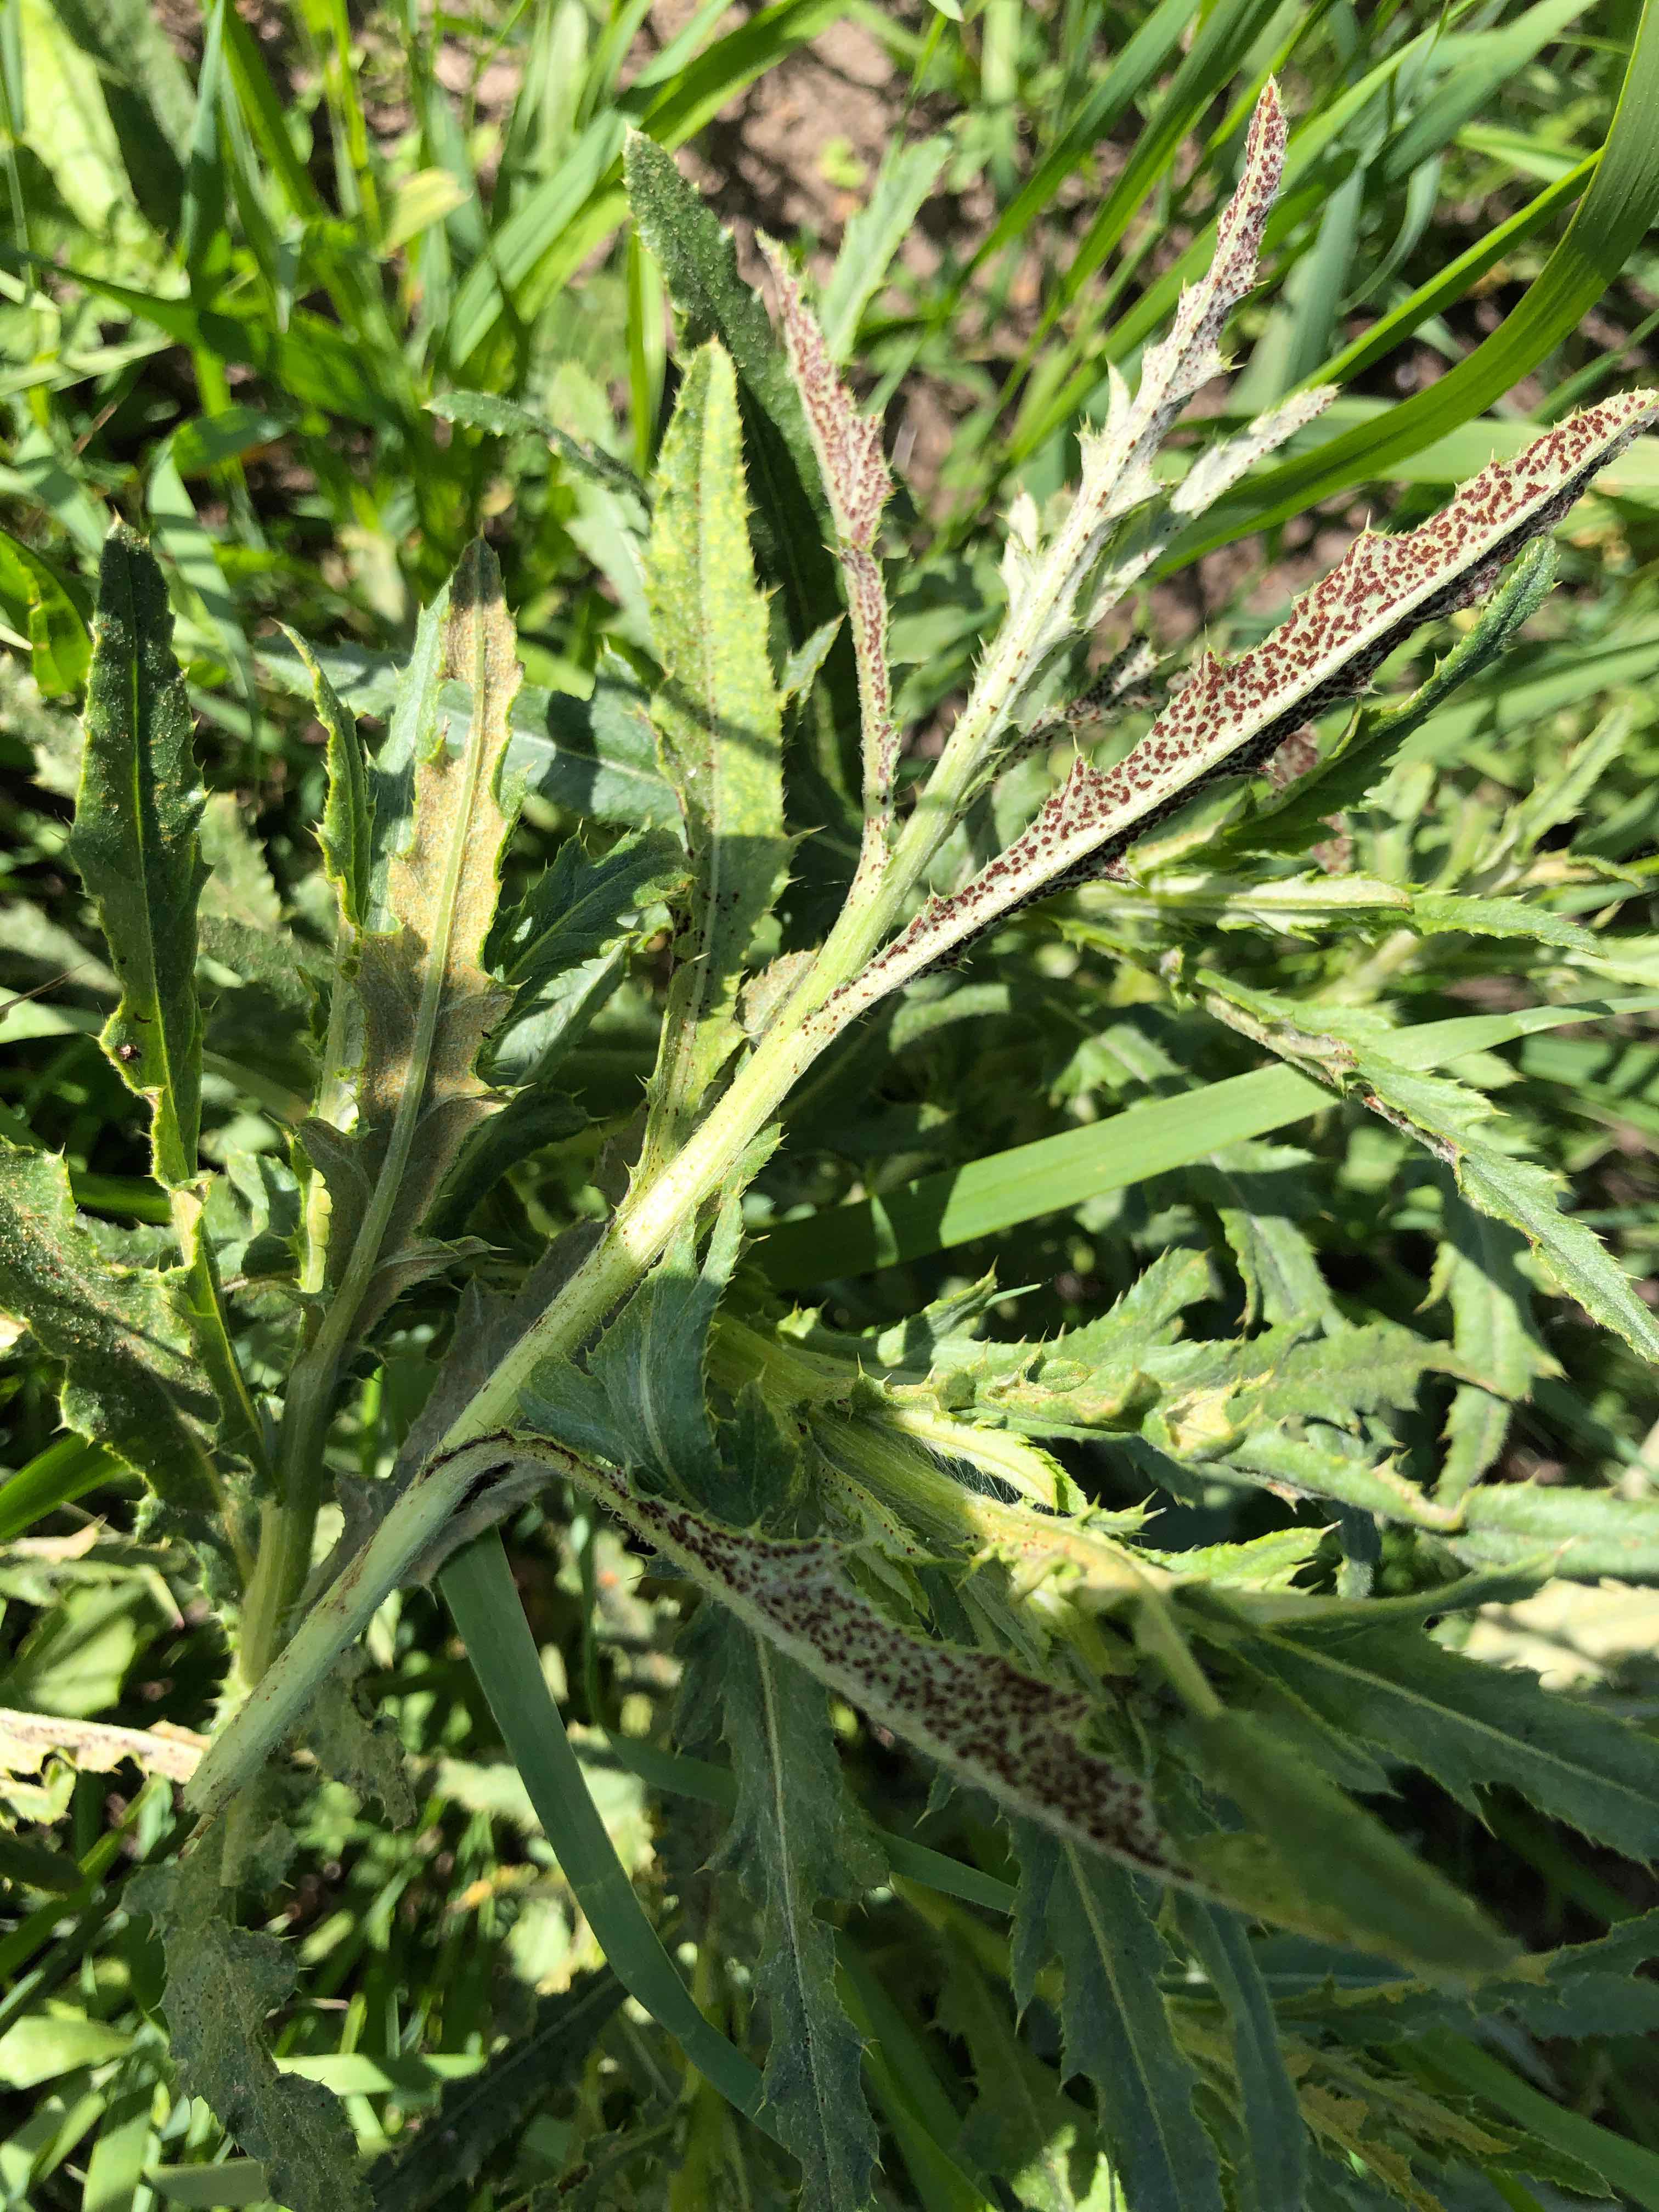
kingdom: Fungi
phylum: Basidiomycota
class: Pucciniomycetes
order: Pucciniales
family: Pucciniaceae
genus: Puccinia
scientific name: Puccinia suaveolens
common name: tidsel-tvecellerust
